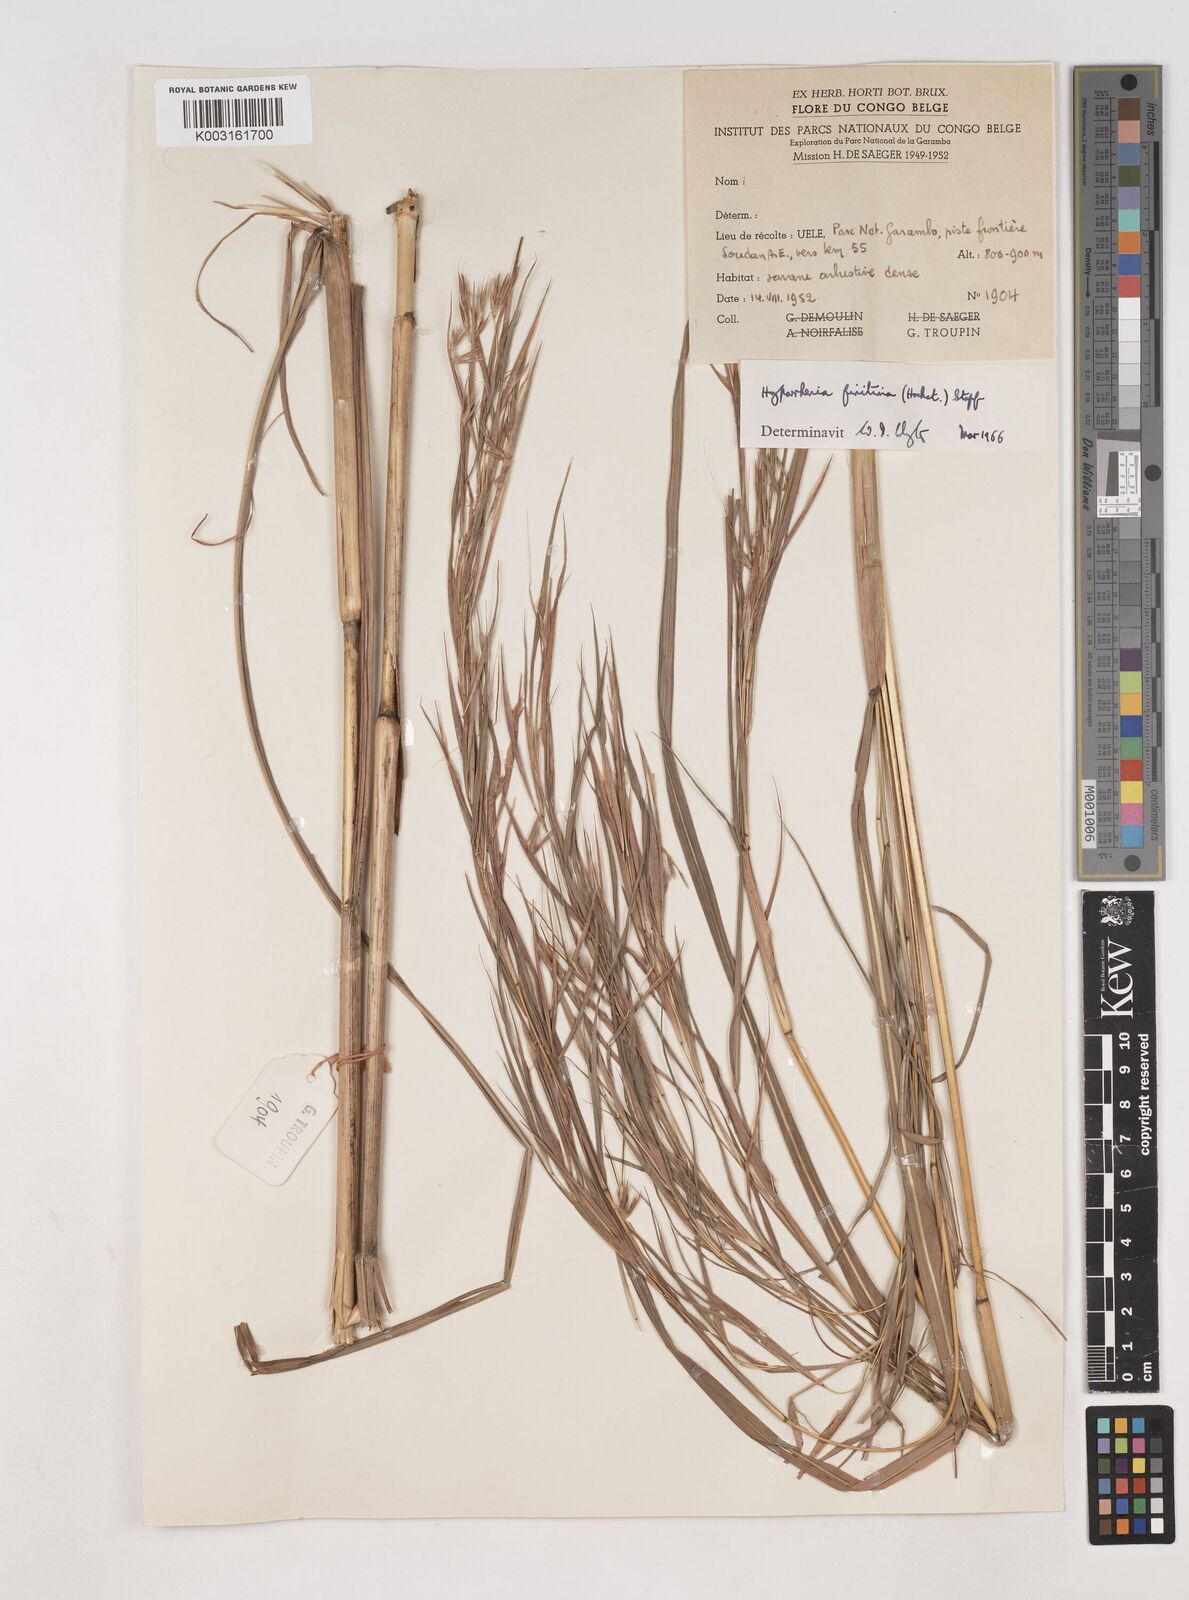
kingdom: Plantae
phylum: Tracheophyta
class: Liliopsida
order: Poales
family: Poaceae
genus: Hyparrhenia
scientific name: Hyparrhenia finitima
